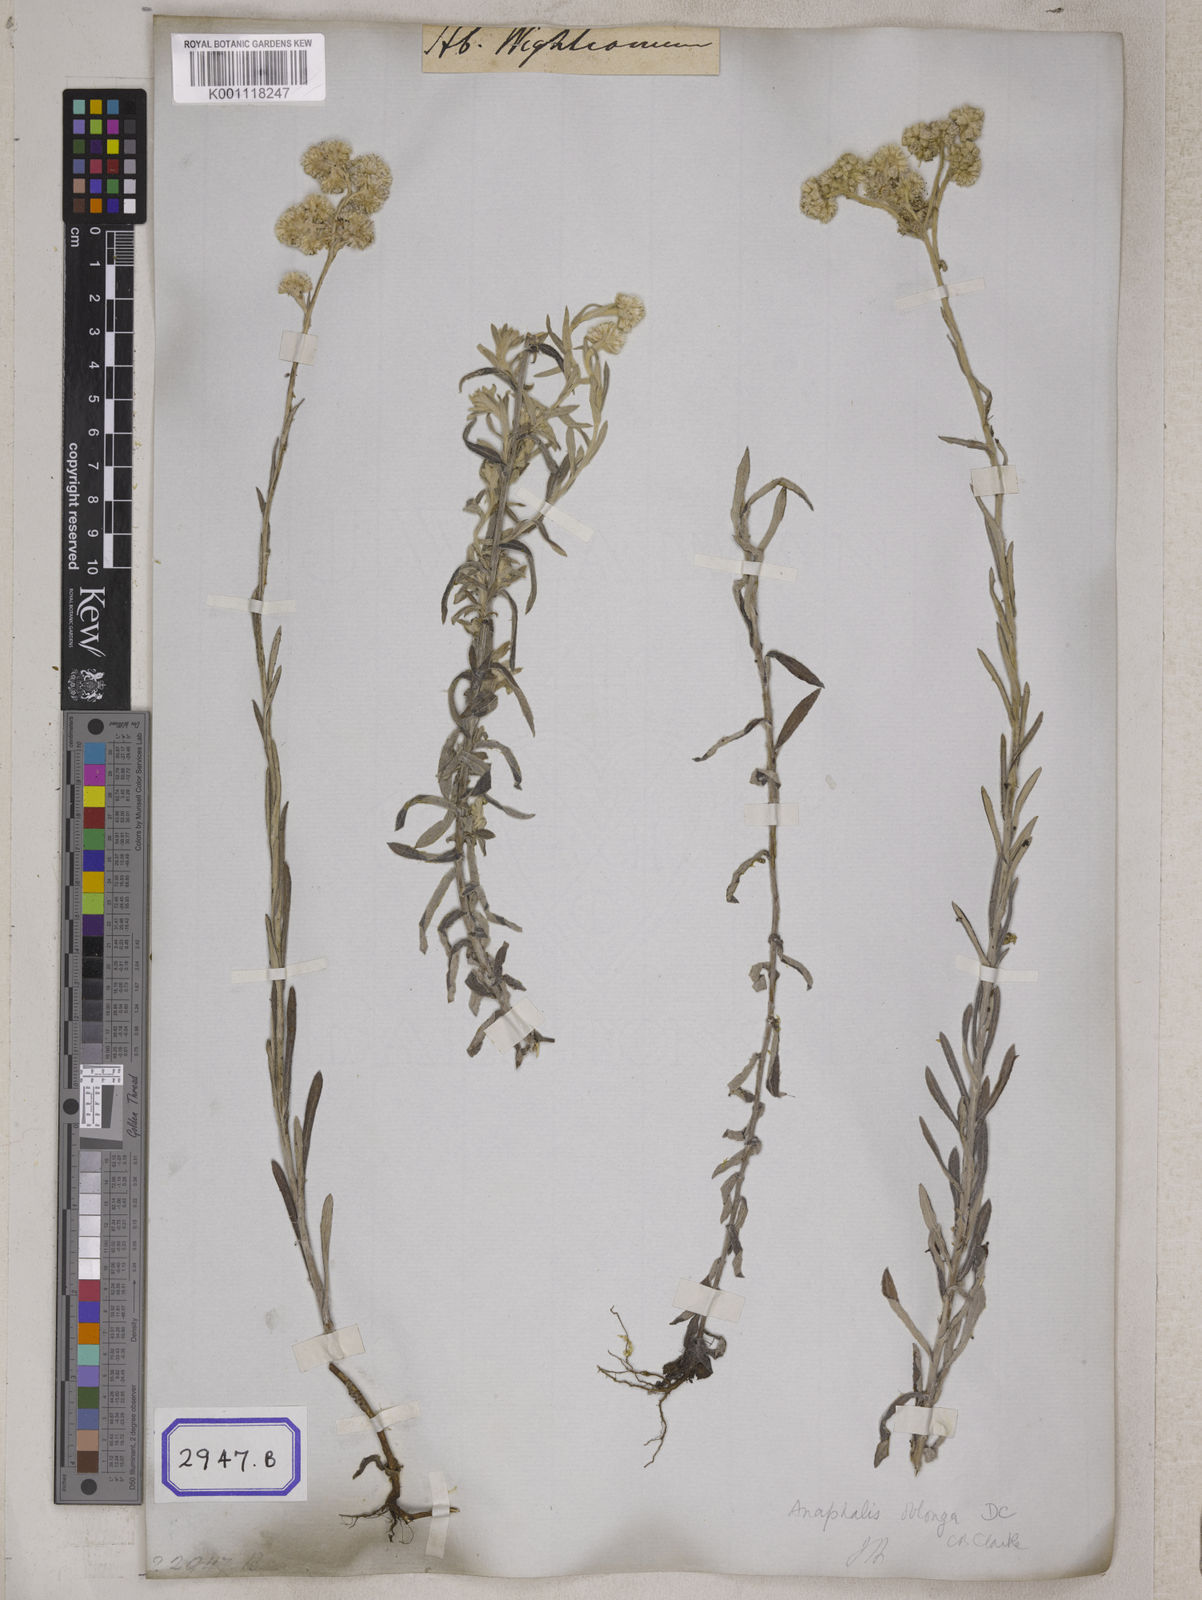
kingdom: Plantae
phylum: Tracheophyta
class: Magnoliopsida
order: Asterales
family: Asteraceae
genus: Anaphalis
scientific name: Anaphalis busua
